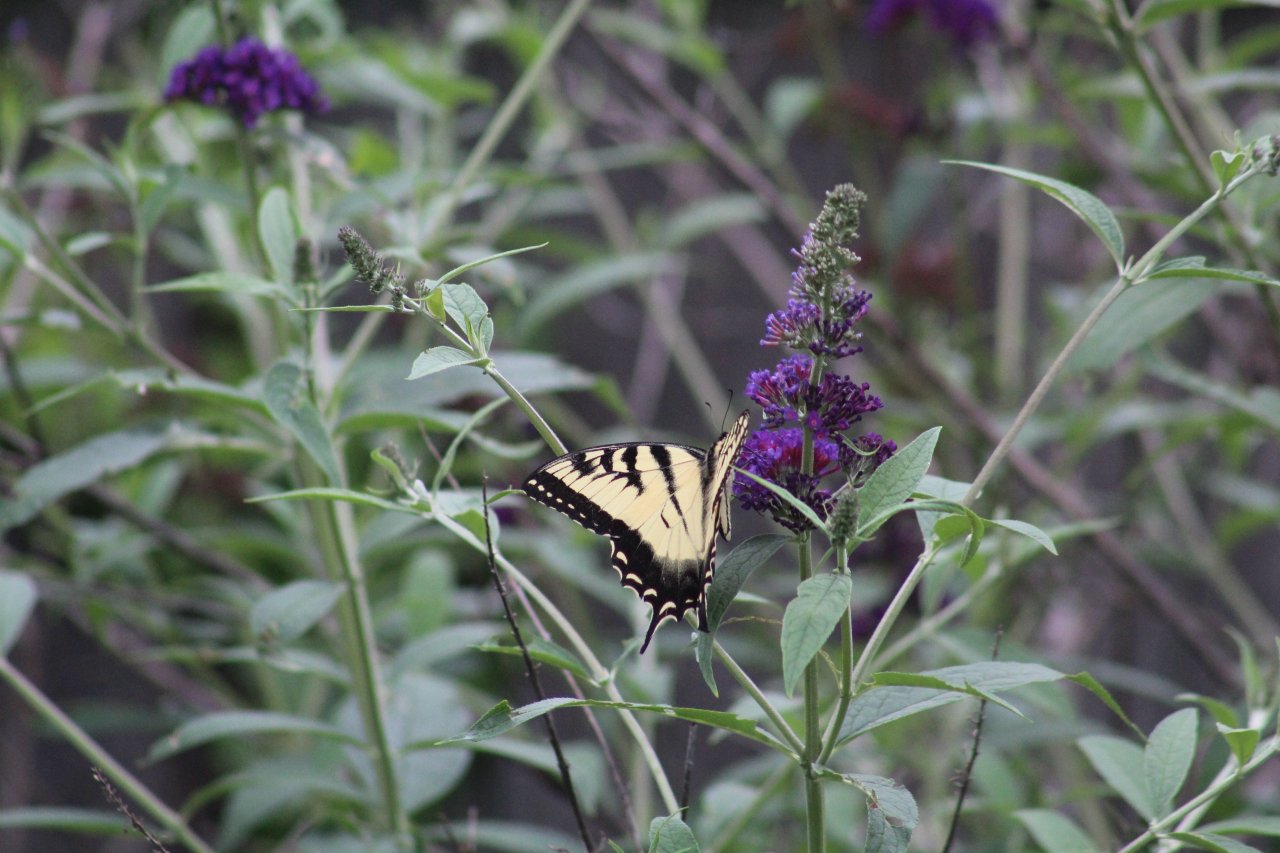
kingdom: Animalia
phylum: Arthropoda
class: Insecta
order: Lepidoptera
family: Papilionidae
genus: Pterourus
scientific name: Pterourus glaucus
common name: Eastern Tiger Swallowtail
